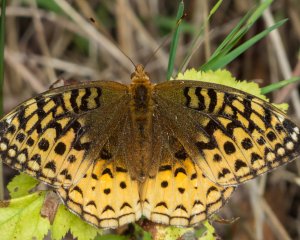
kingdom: Animalia
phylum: Arthropoda
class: Insecta
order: Lepidoptera
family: Nymphalidae
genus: Speyeria
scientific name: Speyeria cybele
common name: Great Spangled Fritillary
